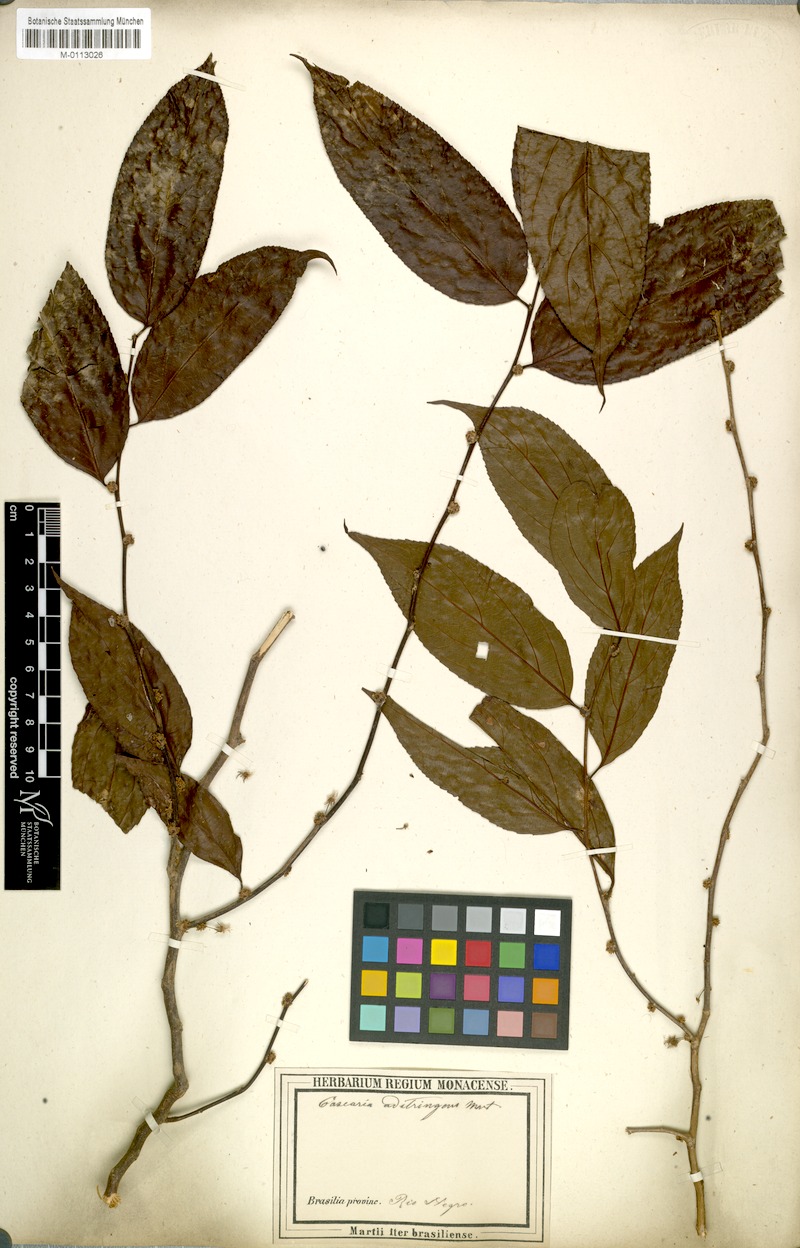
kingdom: Plantae
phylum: Tracheophyta
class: Magnoliopsida
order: Malpighiales
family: Salicaceae
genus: Casearia
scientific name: Casearia decandra
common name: Crack open
